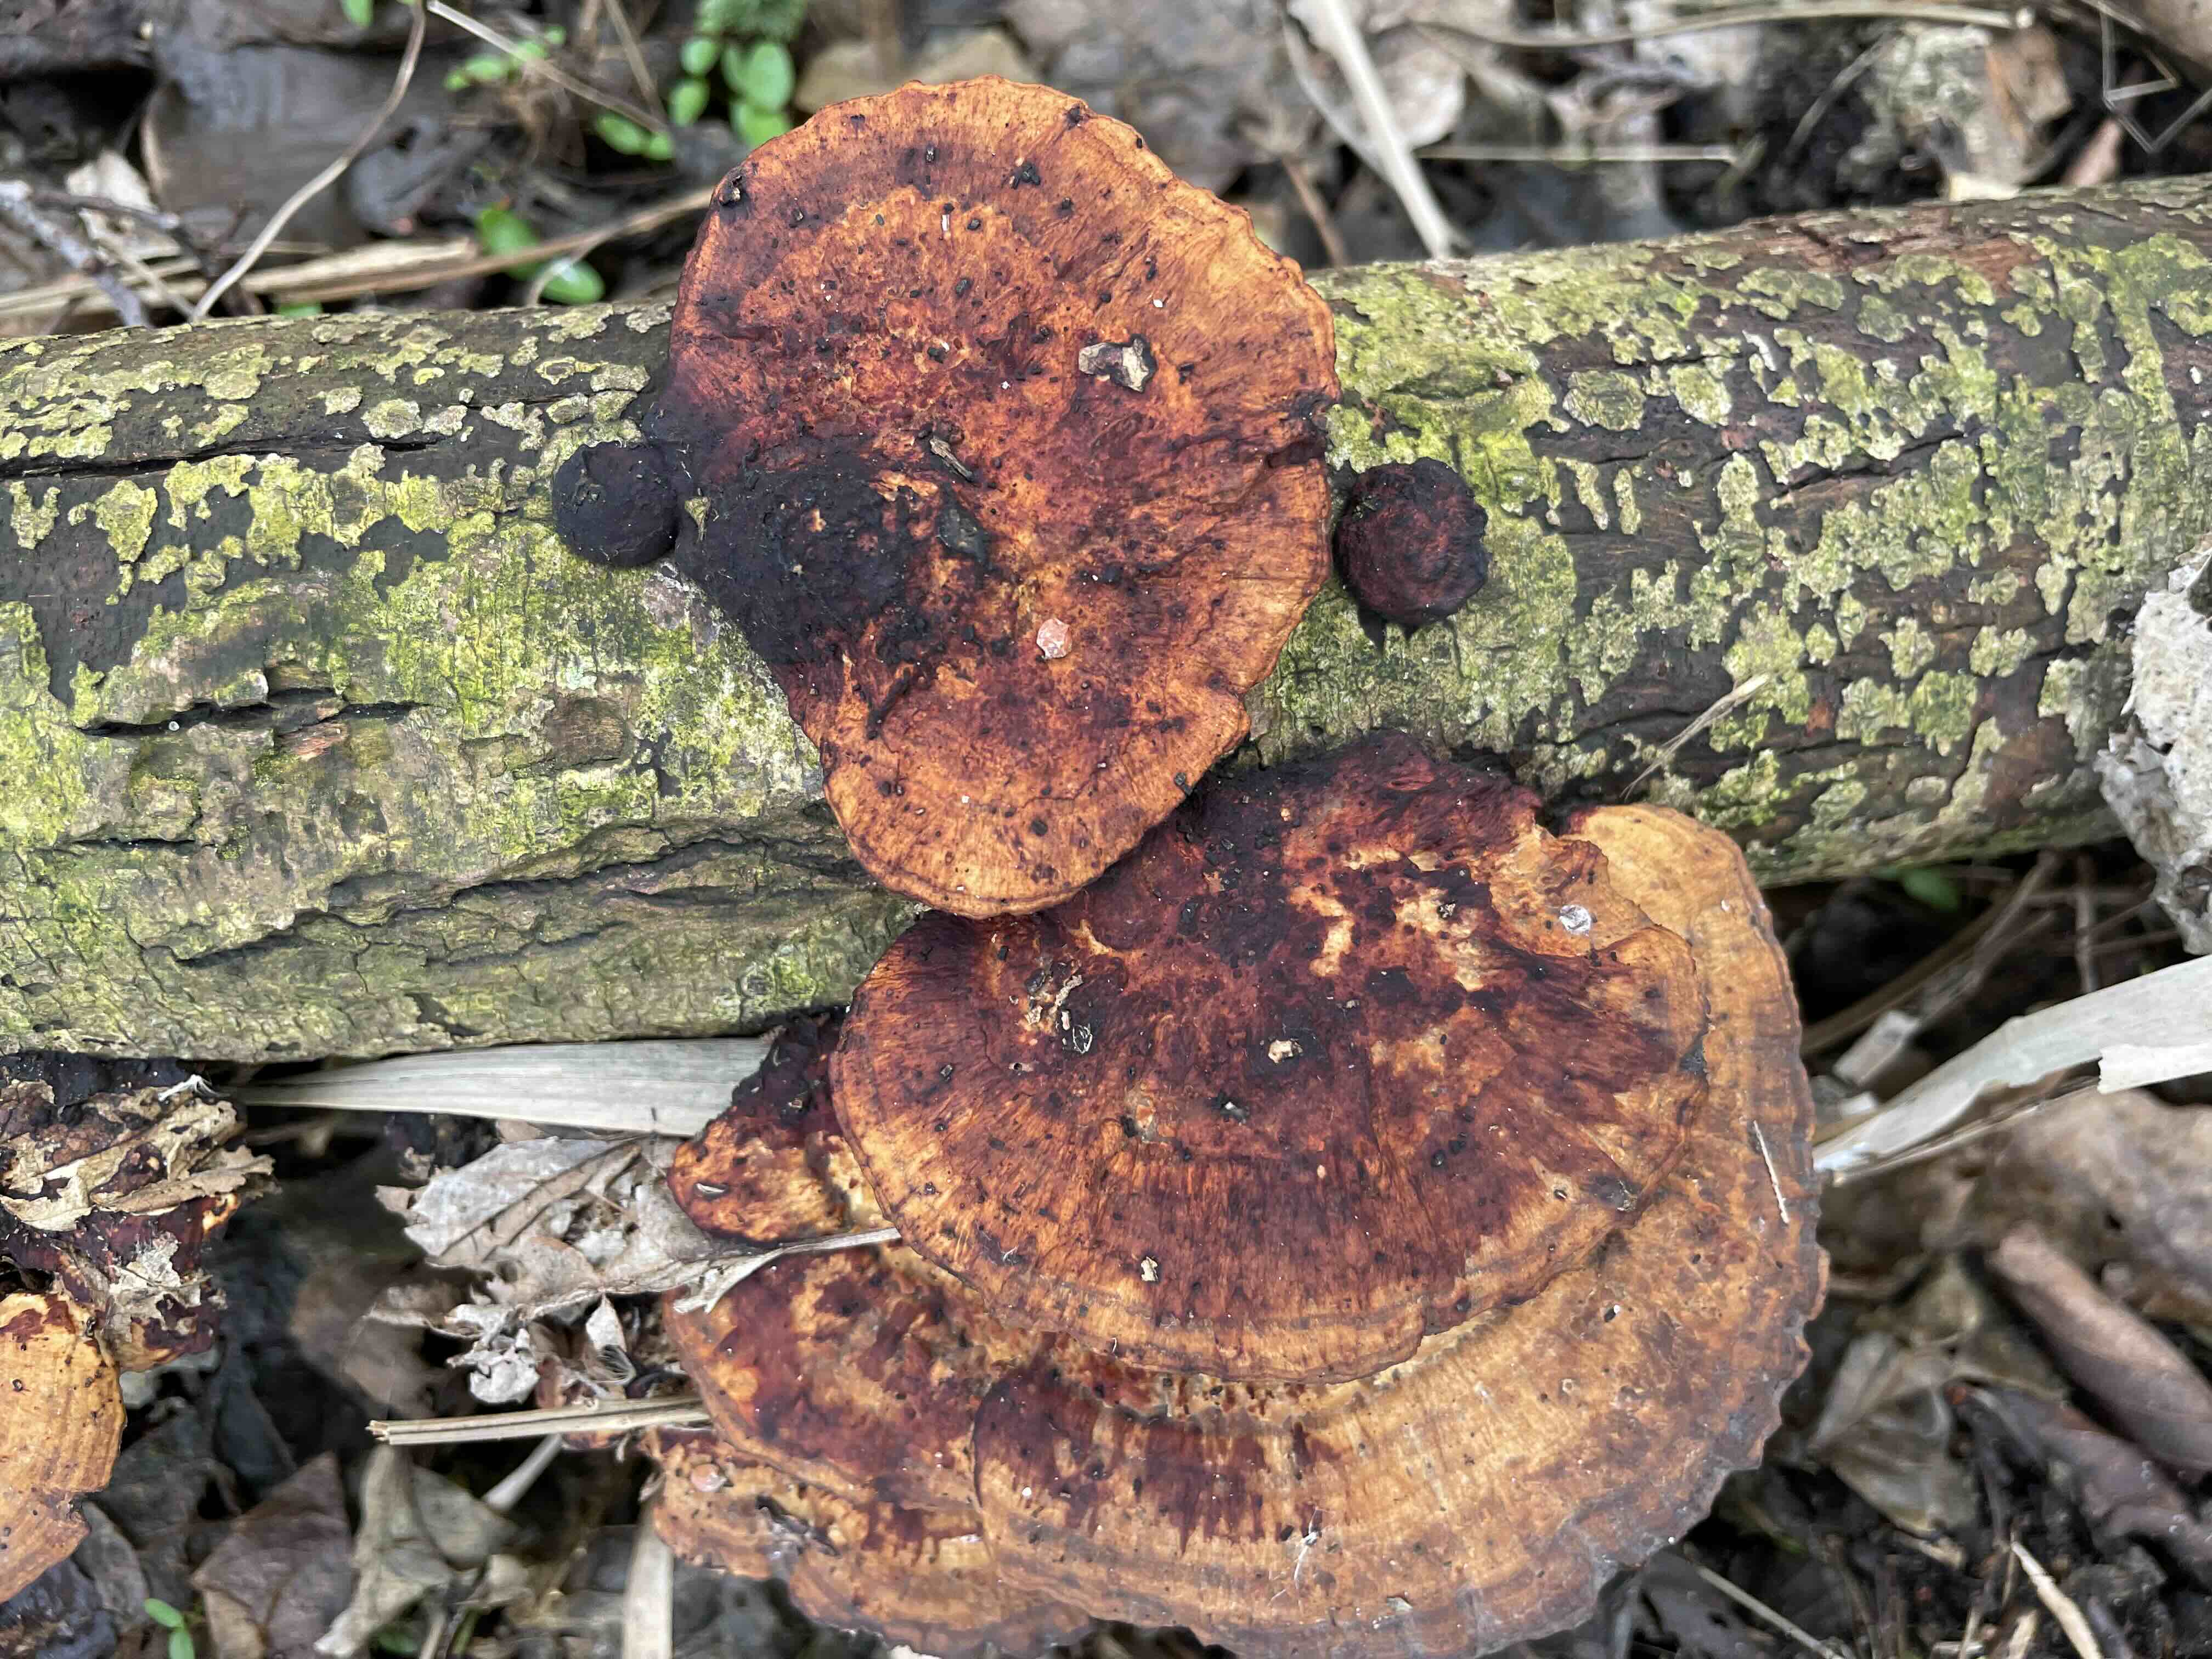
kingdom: Fungi
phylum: Basidiomycota
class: Agaricomycetes
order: Polyporales
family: Polyporaceae
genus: Daedaleopsis
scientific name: Daedaleopsis confragosa
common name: rødmende læderporesvamp
